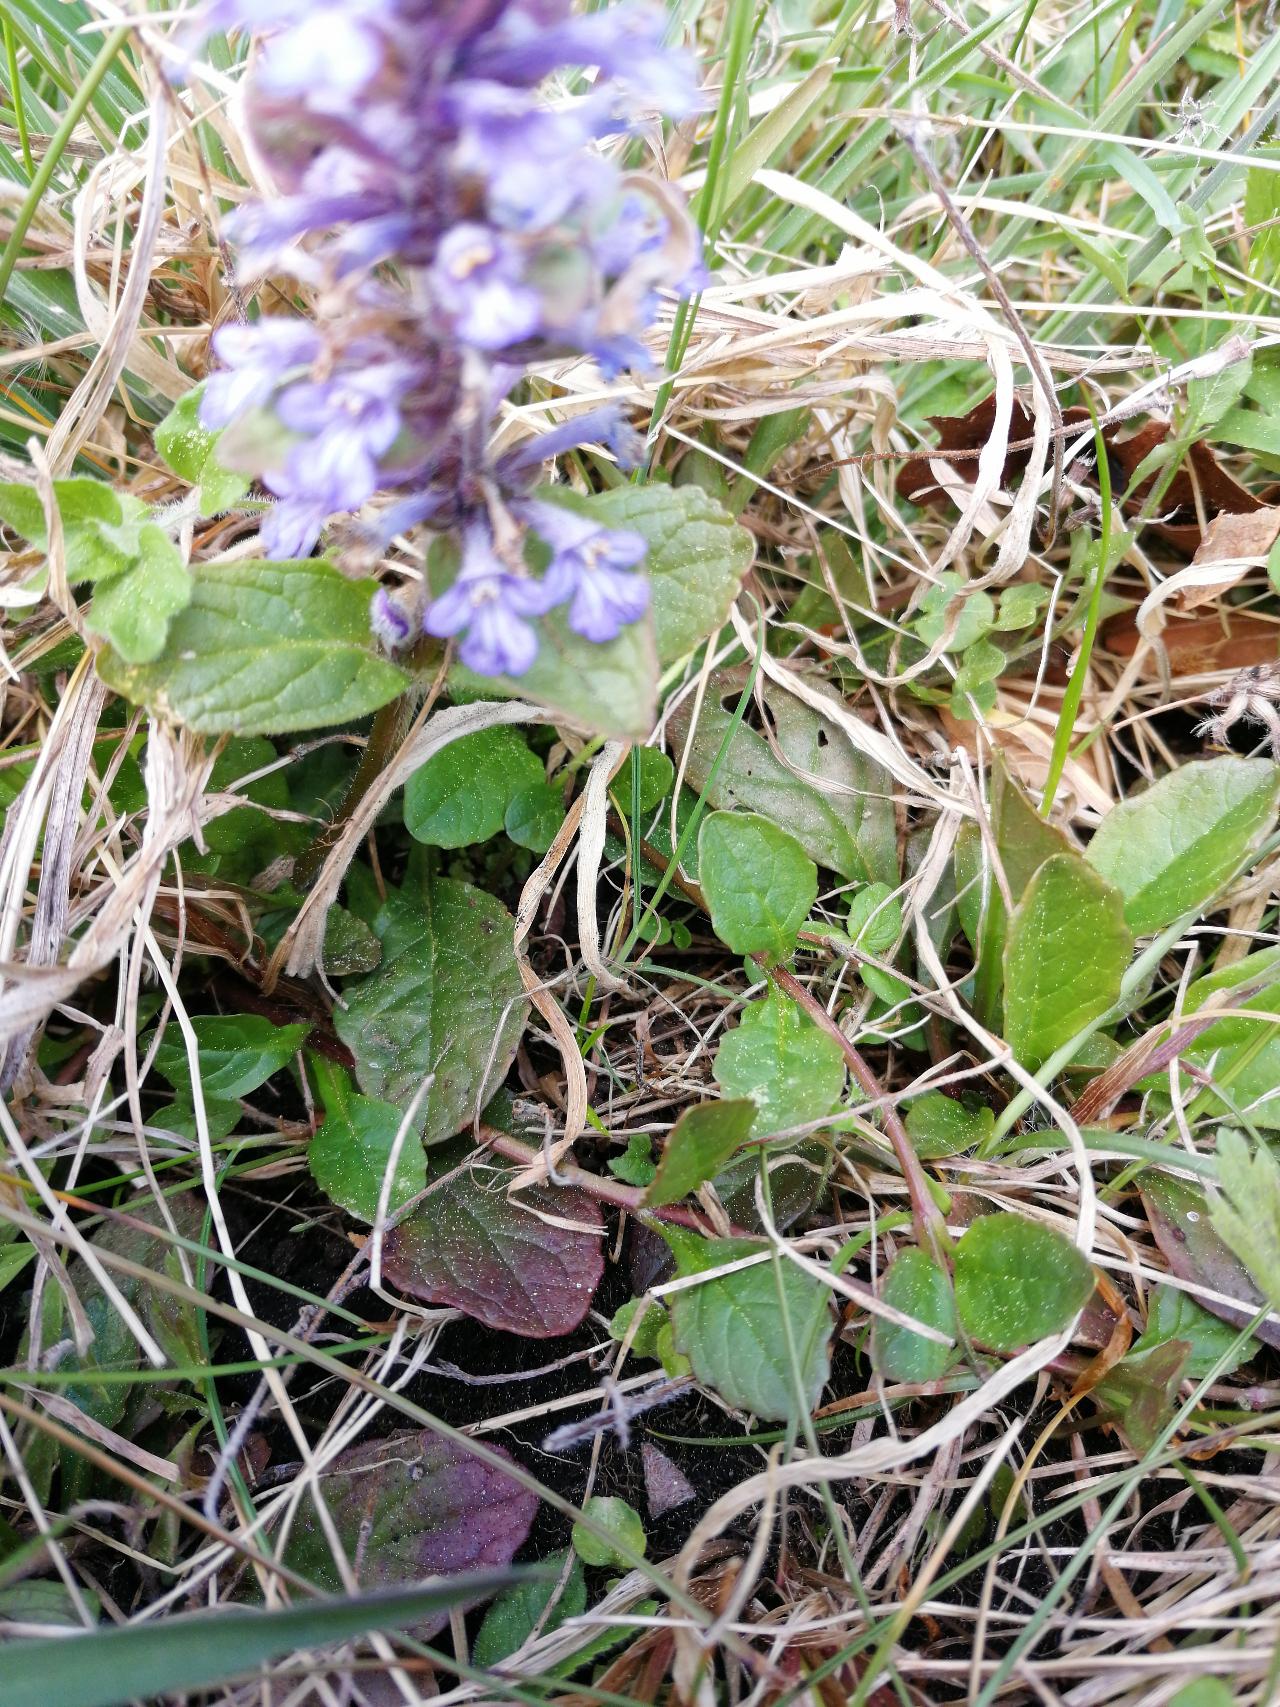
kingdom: Plantae
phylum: Tracheophyta
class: Magnoliopsida
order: Lamiales
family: Lamiaceae
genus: Ajuga
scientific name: Ajuga reptans
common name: Krybende læbeløs
